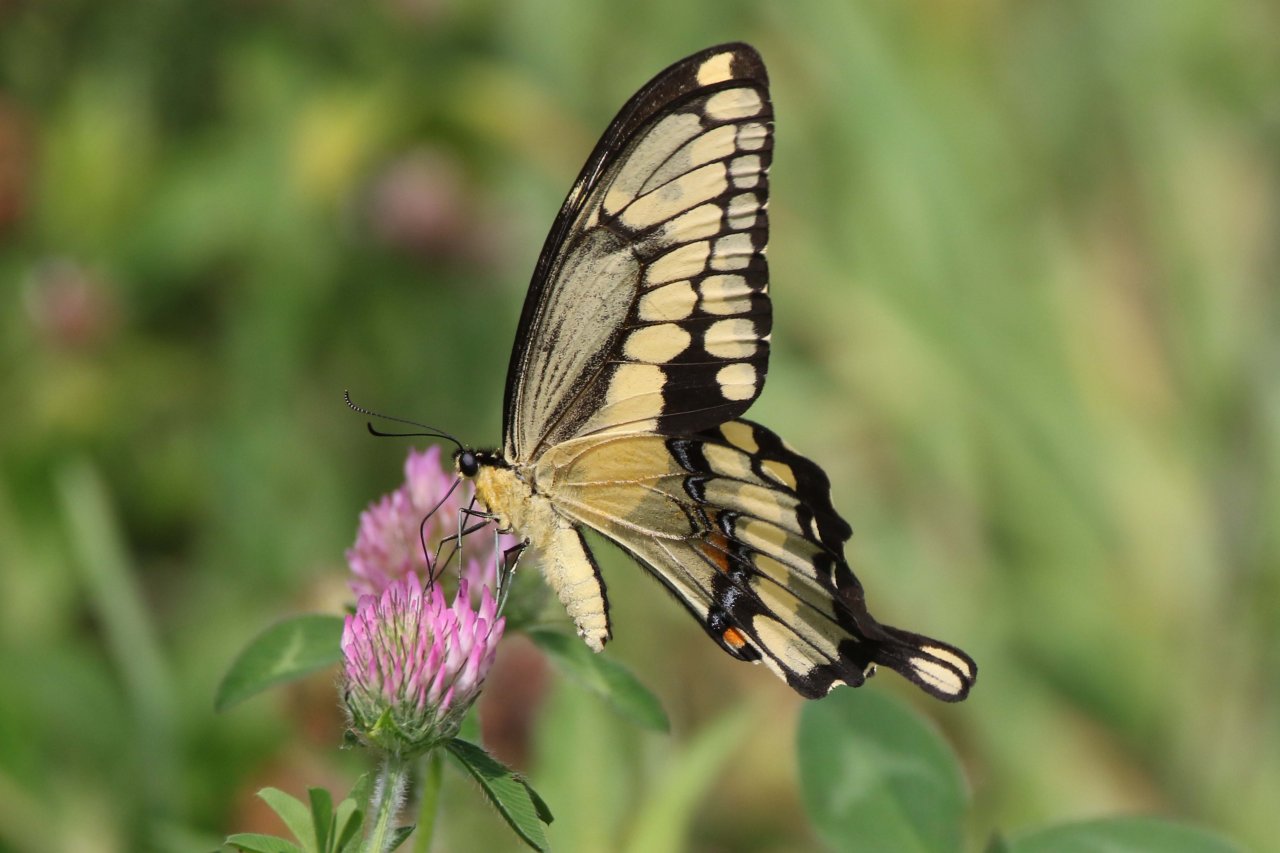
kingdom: Animalia
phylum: Arthropoda
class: Insecta
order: Lepidoptera
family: Papilionidae
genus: Papilio
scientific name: Papilio cresphontes
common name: Eastern Giant Swallowtail
